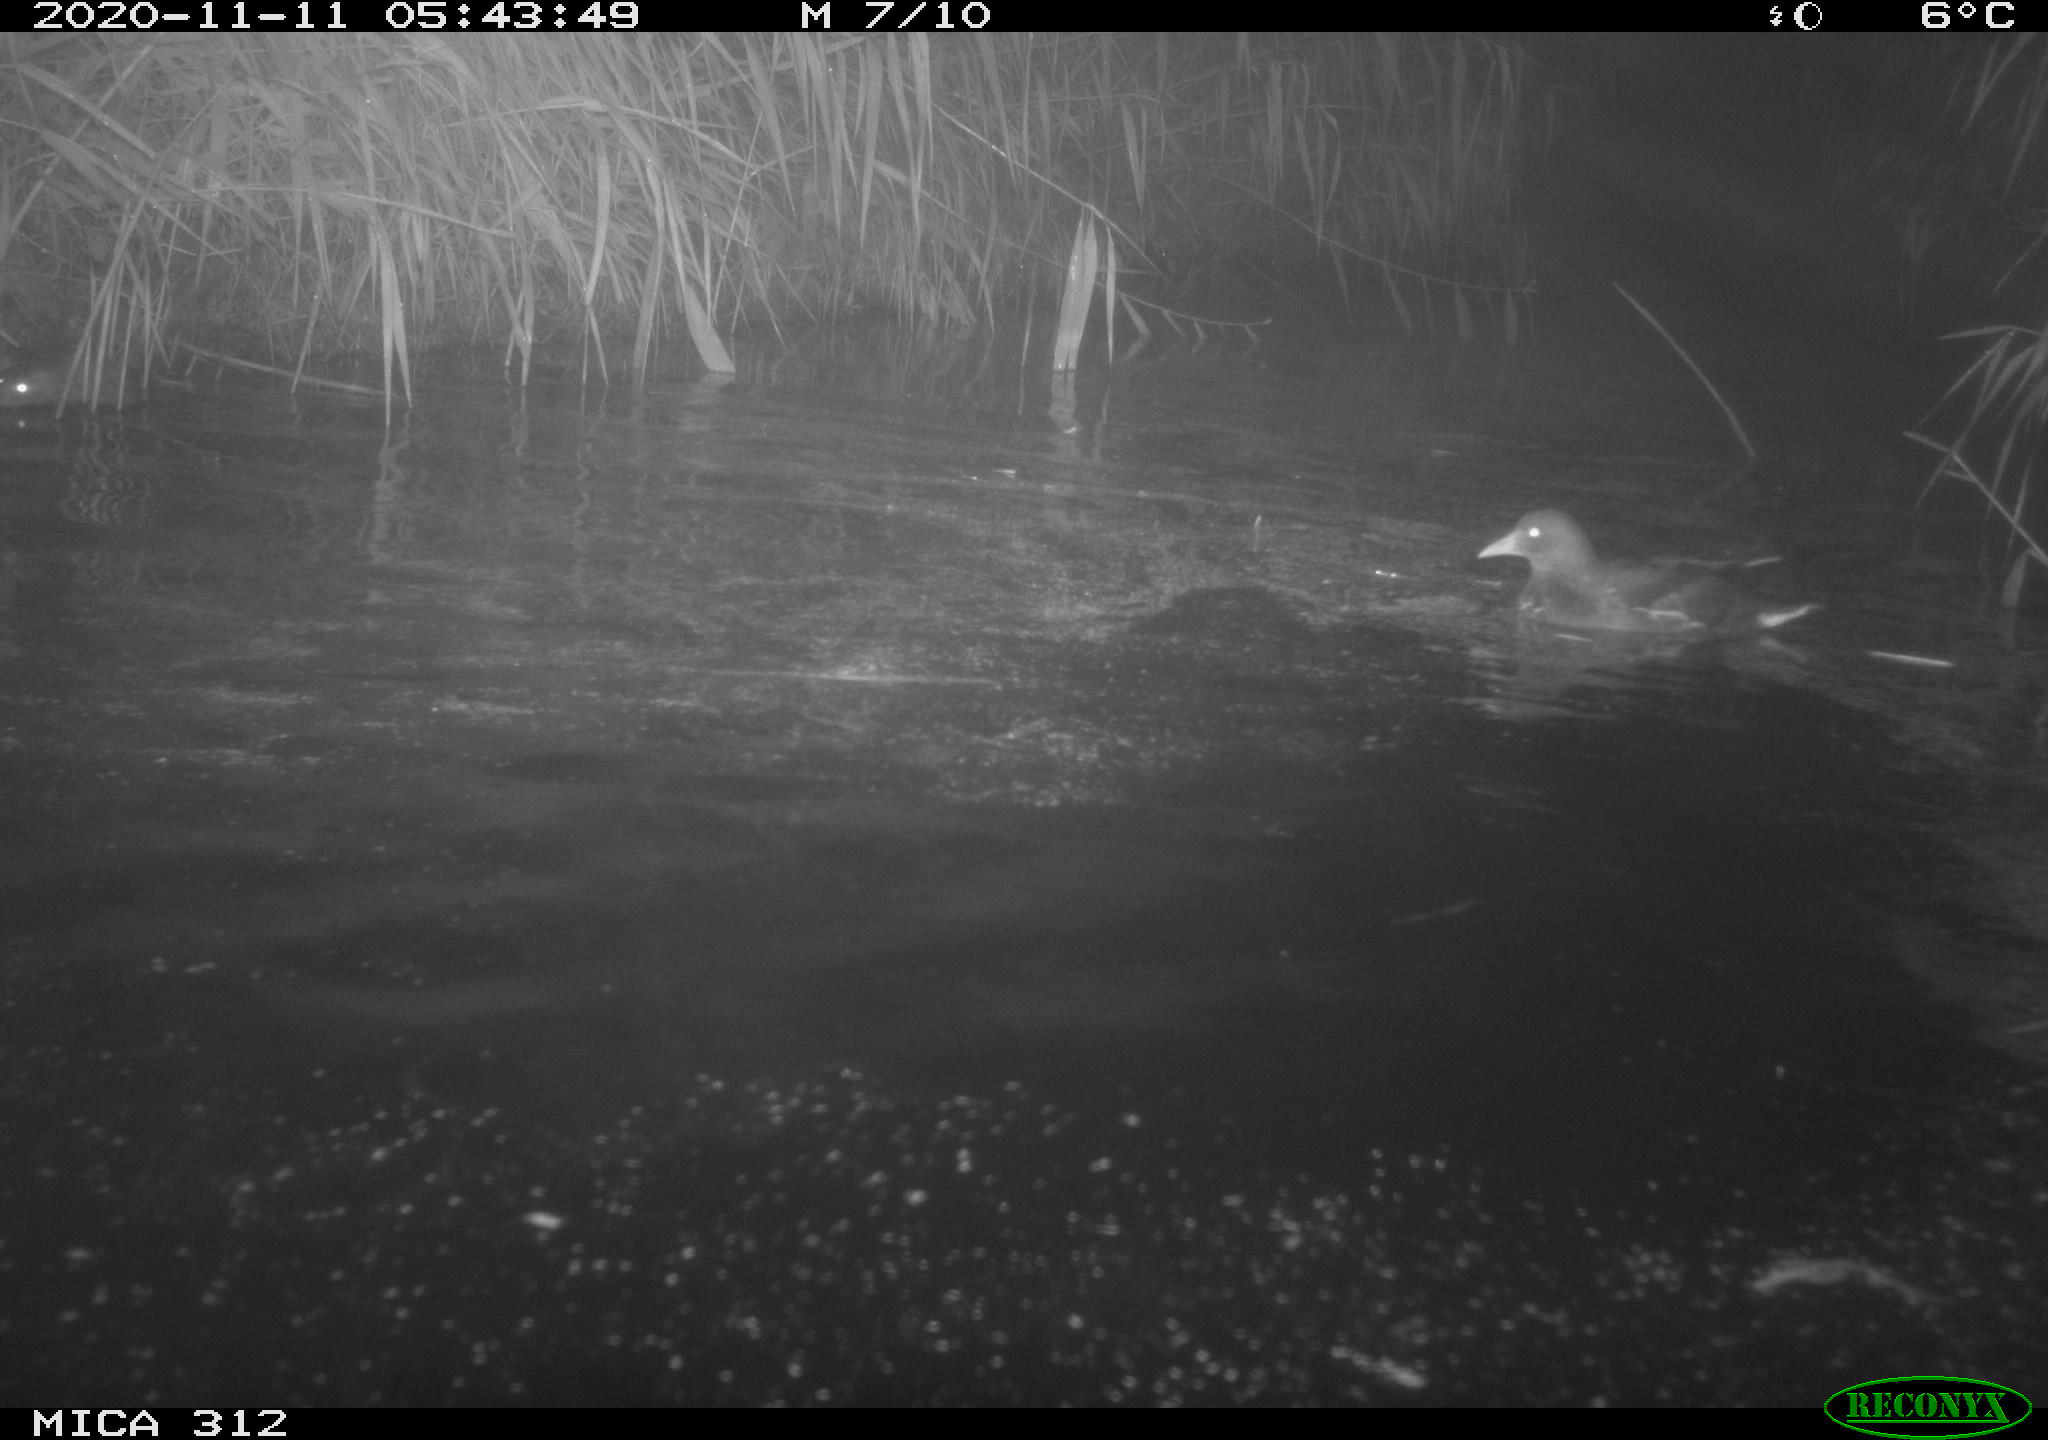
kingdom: Animalia
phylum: Chordata
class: Aves
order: Gruiformes
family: Rallidae
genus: Fulica
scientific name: Fulica atra
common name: Eurasian coot
